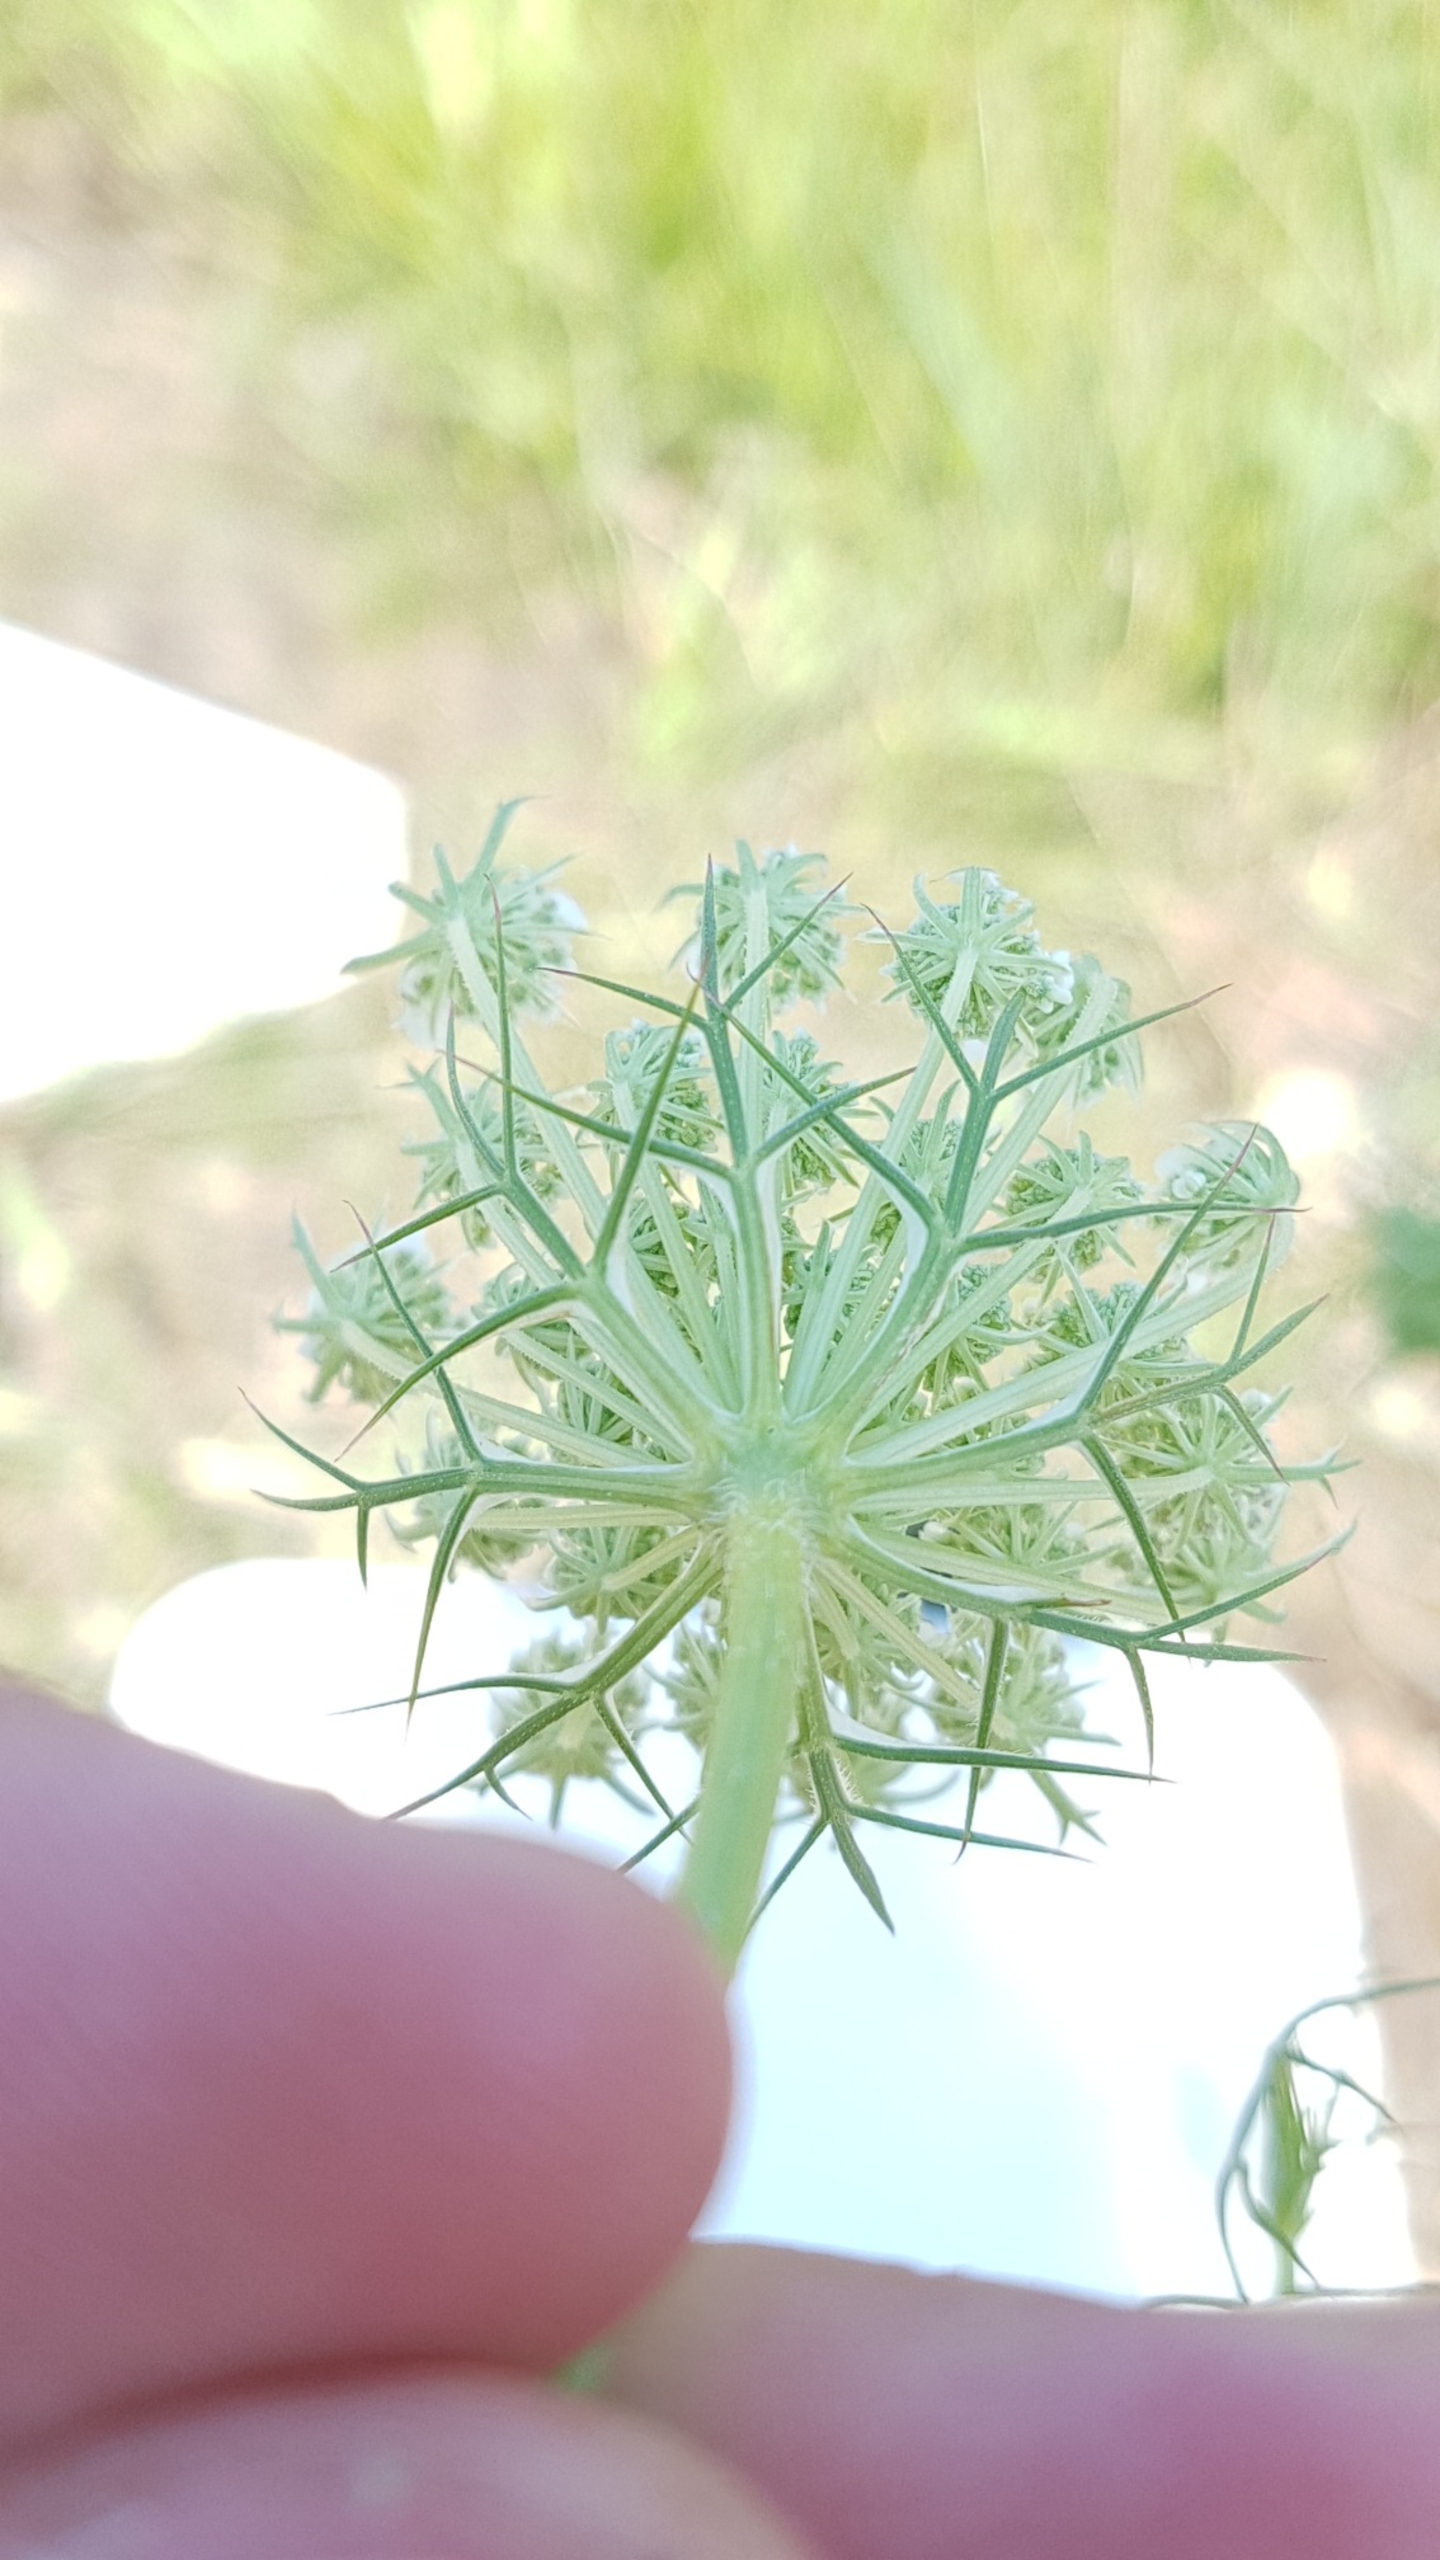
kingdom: Plantae
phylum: Tracheophyta
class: Magnoliopsida
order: Apiales
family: Apiaceae
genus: Daucus
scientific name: Daucus carota
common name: Vild gulerod
